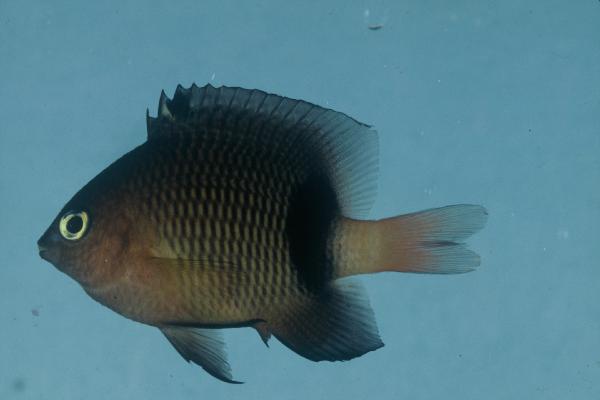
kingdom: Animalia
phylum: Chordata
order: Perciformes
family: Pomacentridae
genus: Plectroglyphidodon
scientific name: Plectroglyphidodon dickii
